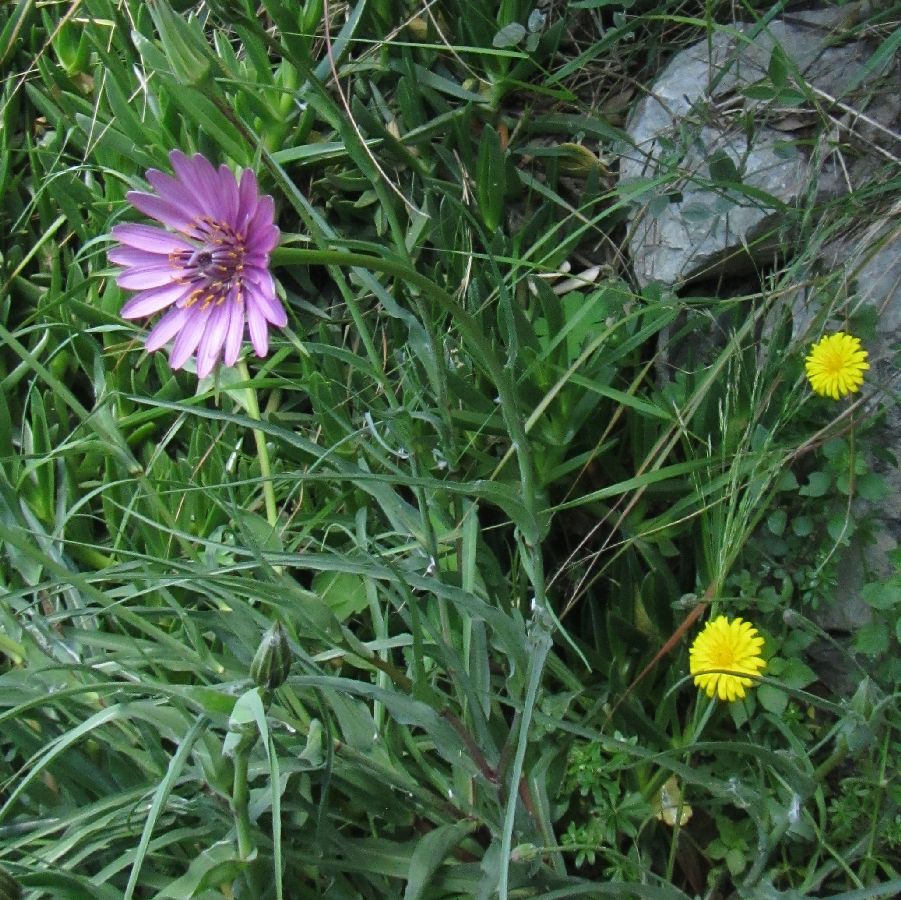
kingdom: Plantae
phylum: Tracheophyta
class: Magnoliopsida
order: Asterales
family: Asteraceae
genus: Tragopogon
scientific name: Tragopogon porrifolius
